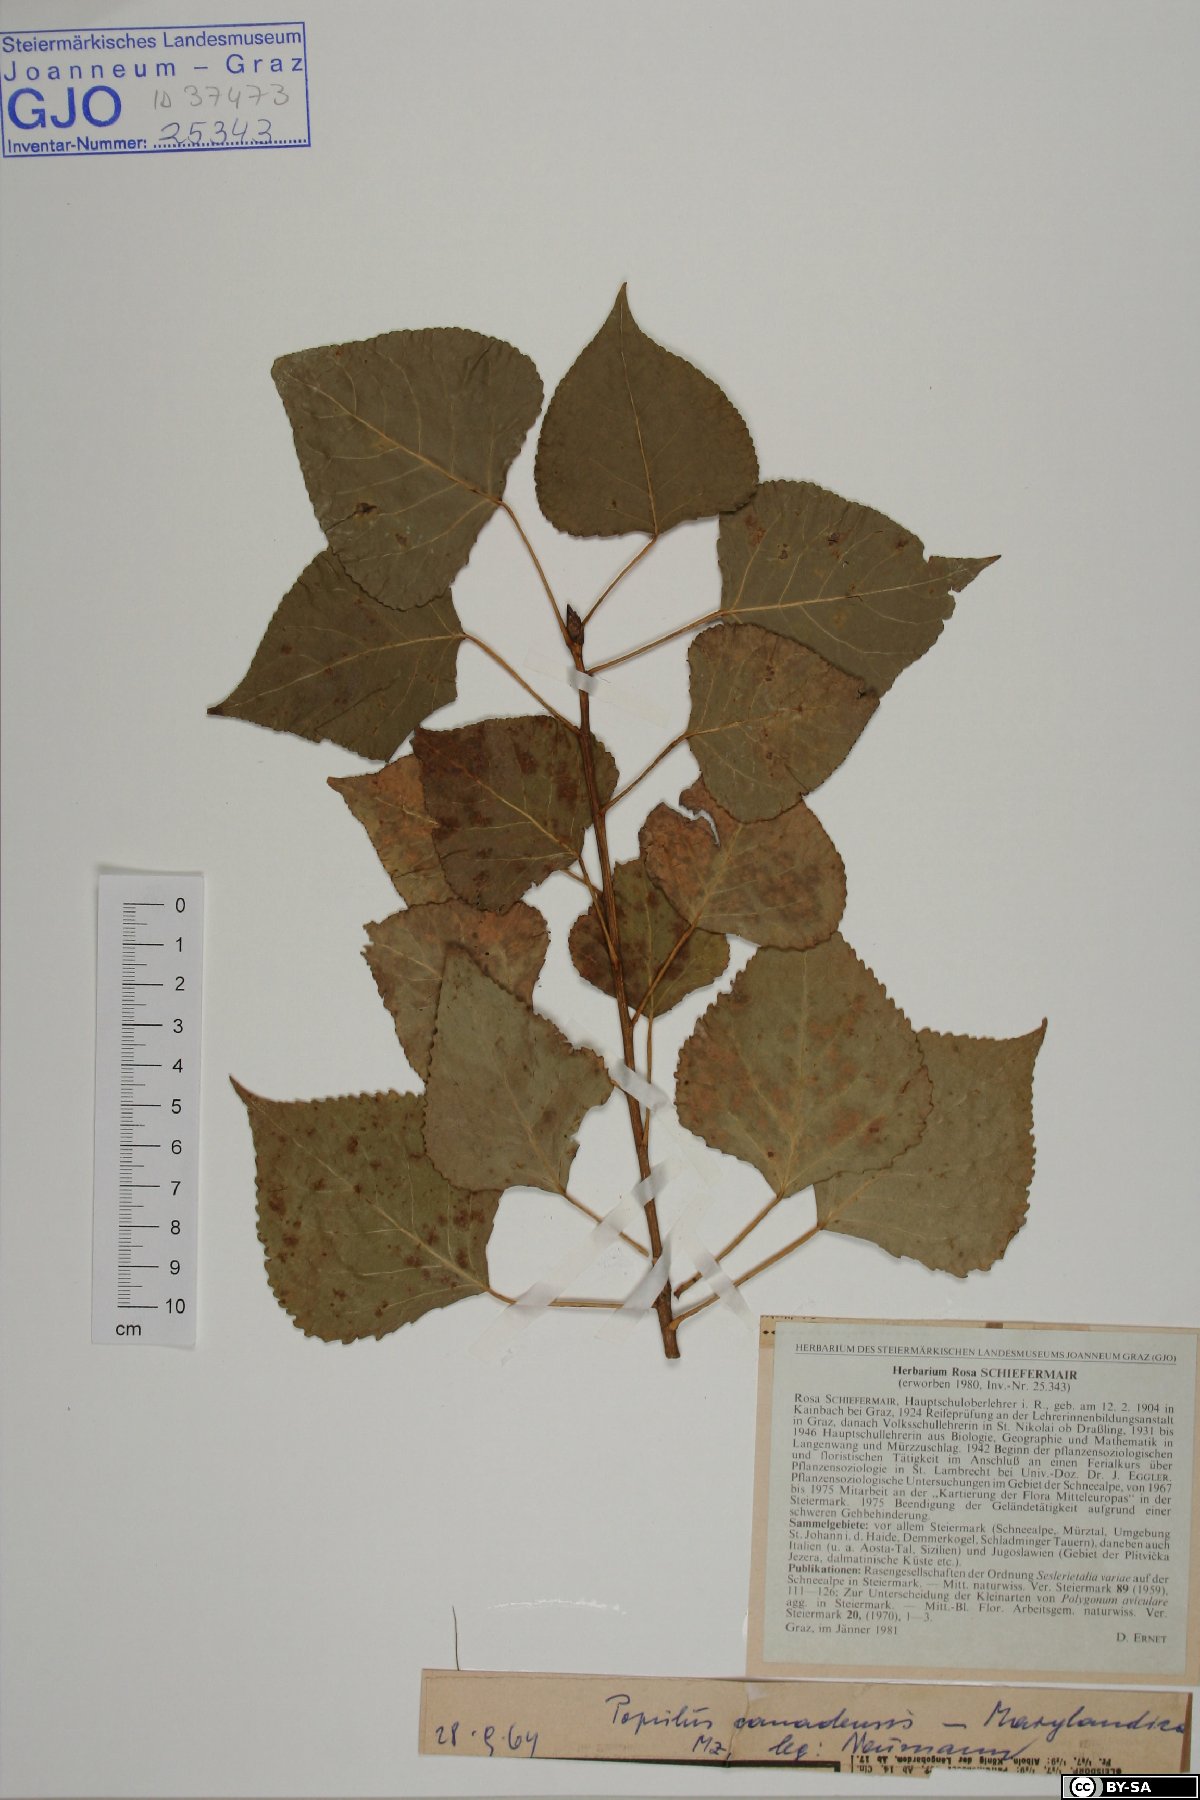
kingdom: Plantae
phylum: Tracheophyta
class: Magnoliopsida
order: Malpighiales
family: Salicaceae
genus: Populus
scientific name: Populus canadensis
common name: Carolina poplar
